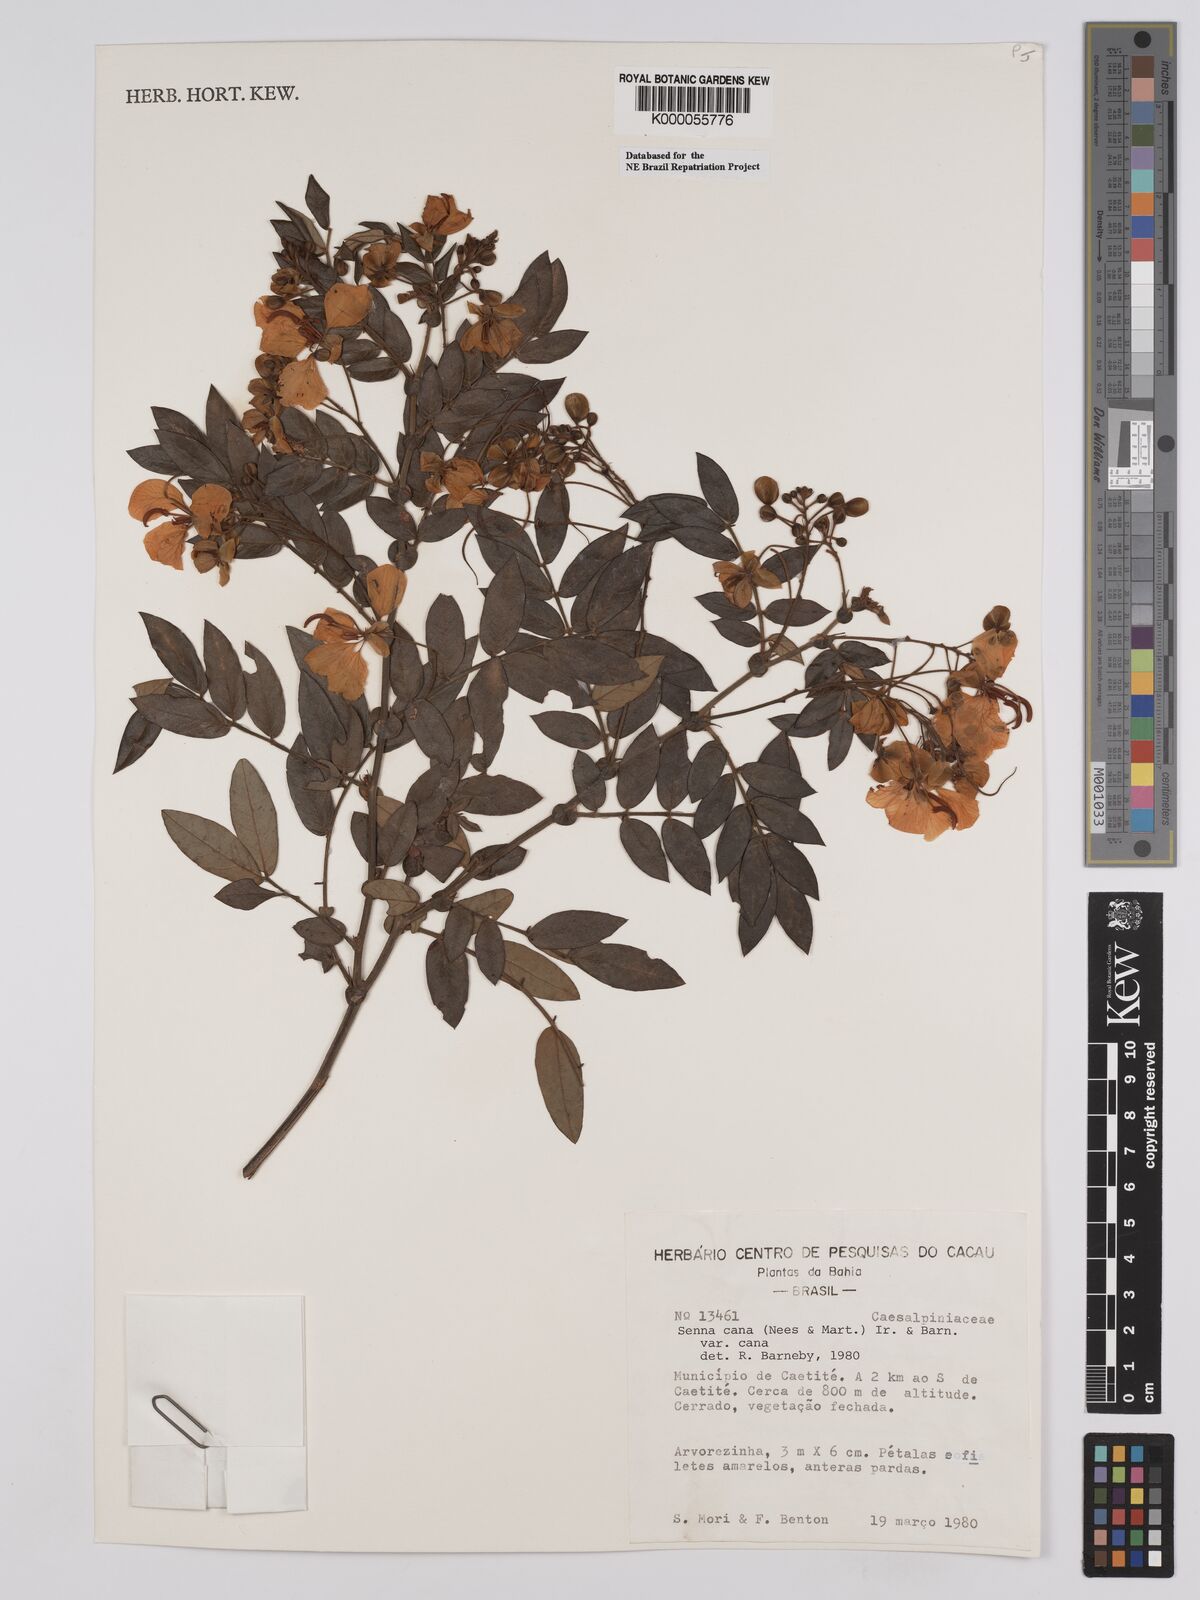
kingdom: Plantae
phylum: Tracheophyta
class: Magnoliopsida
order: Fabales
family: Fabaceae
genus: Senna
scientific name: Senna cana
